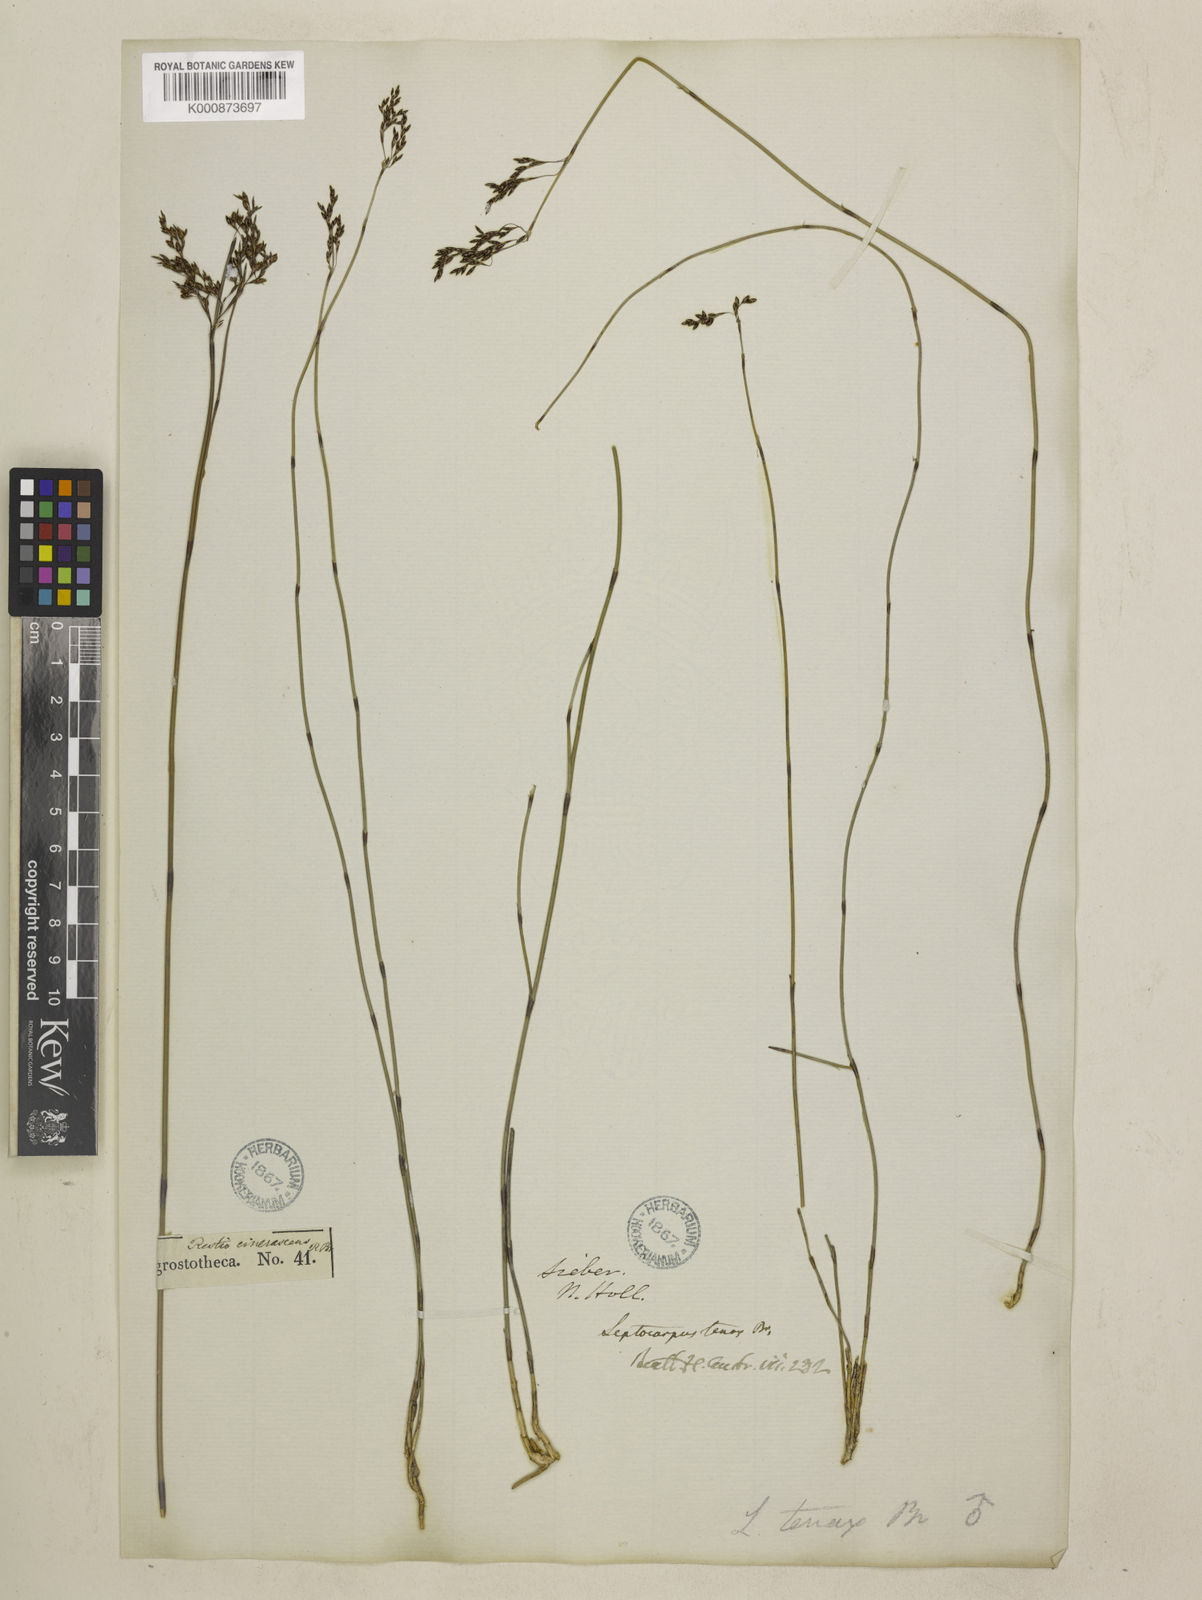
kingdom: Plantae
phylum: Tracheophyta
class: Liliopsida
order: Poales
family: Restionaceae
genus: Leptocarpus
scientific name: Leptocarpus tenax
